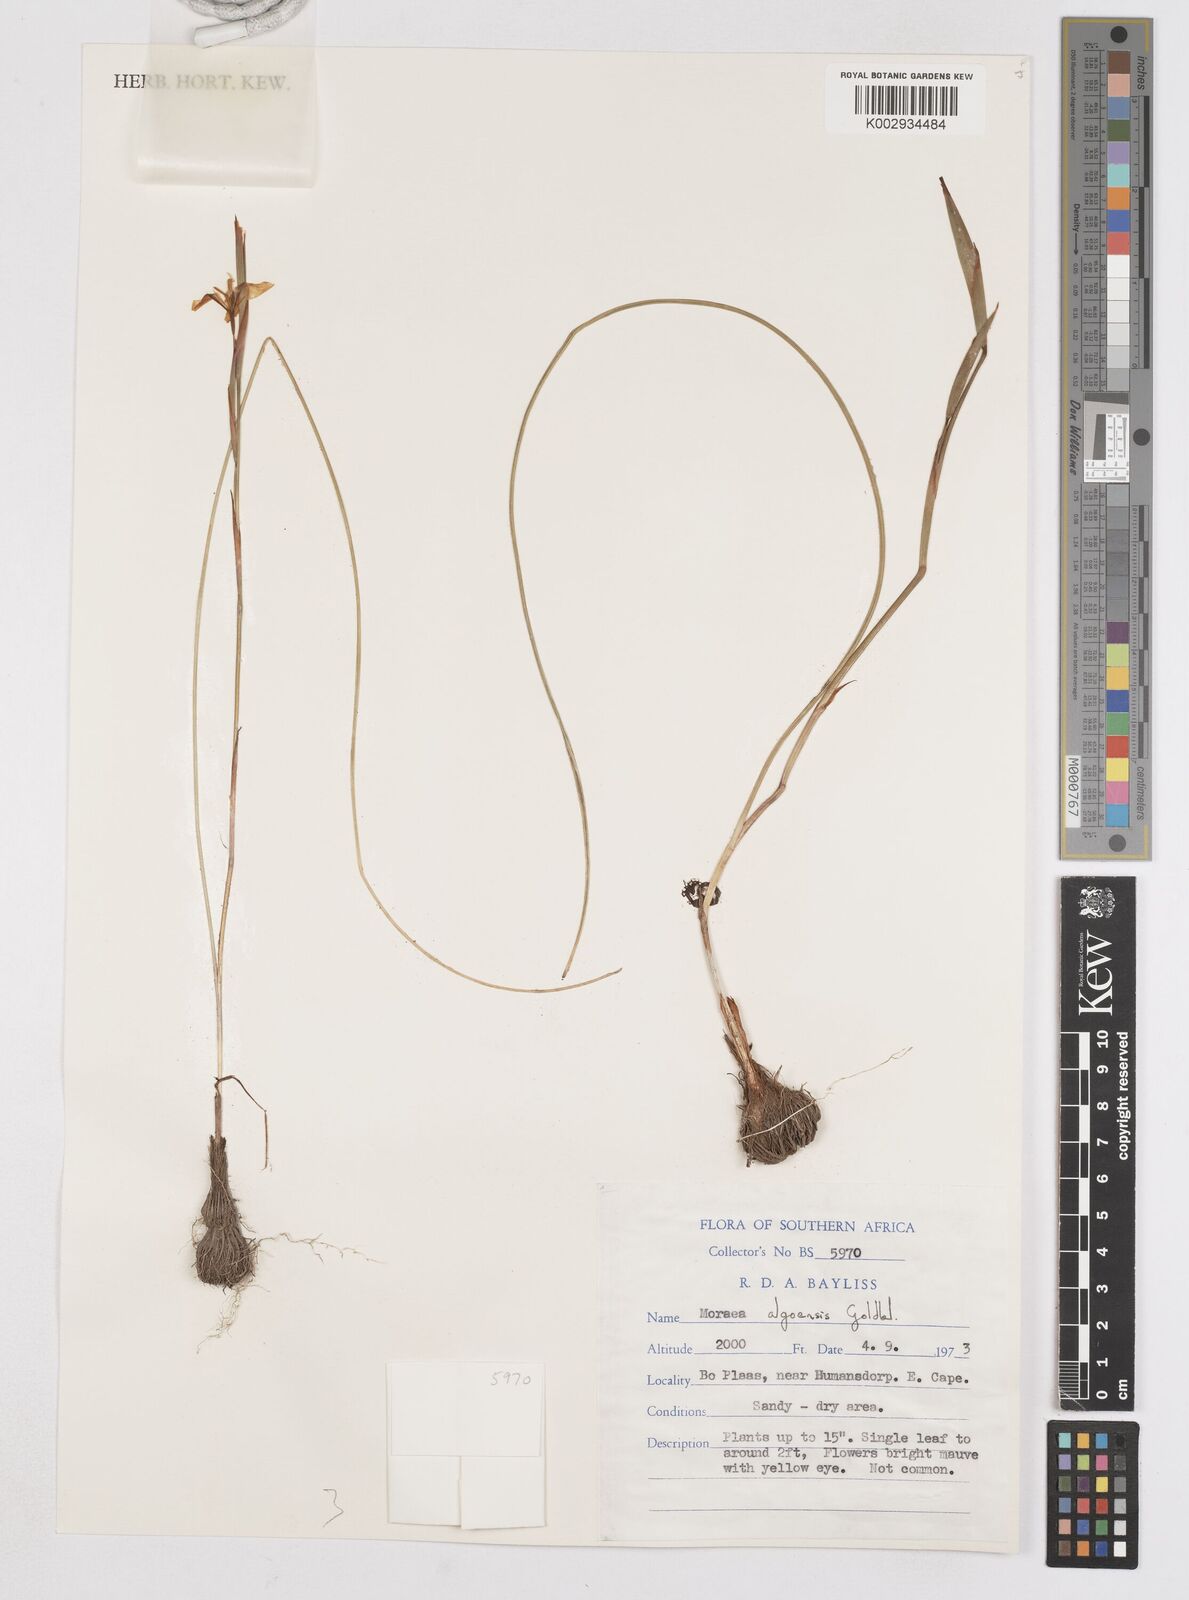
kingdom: Plantae
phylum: Tracheophyta
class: Liliopsida
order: Asparagales
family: Iridaceae
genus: Moraea
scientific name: Moraea algoensis
